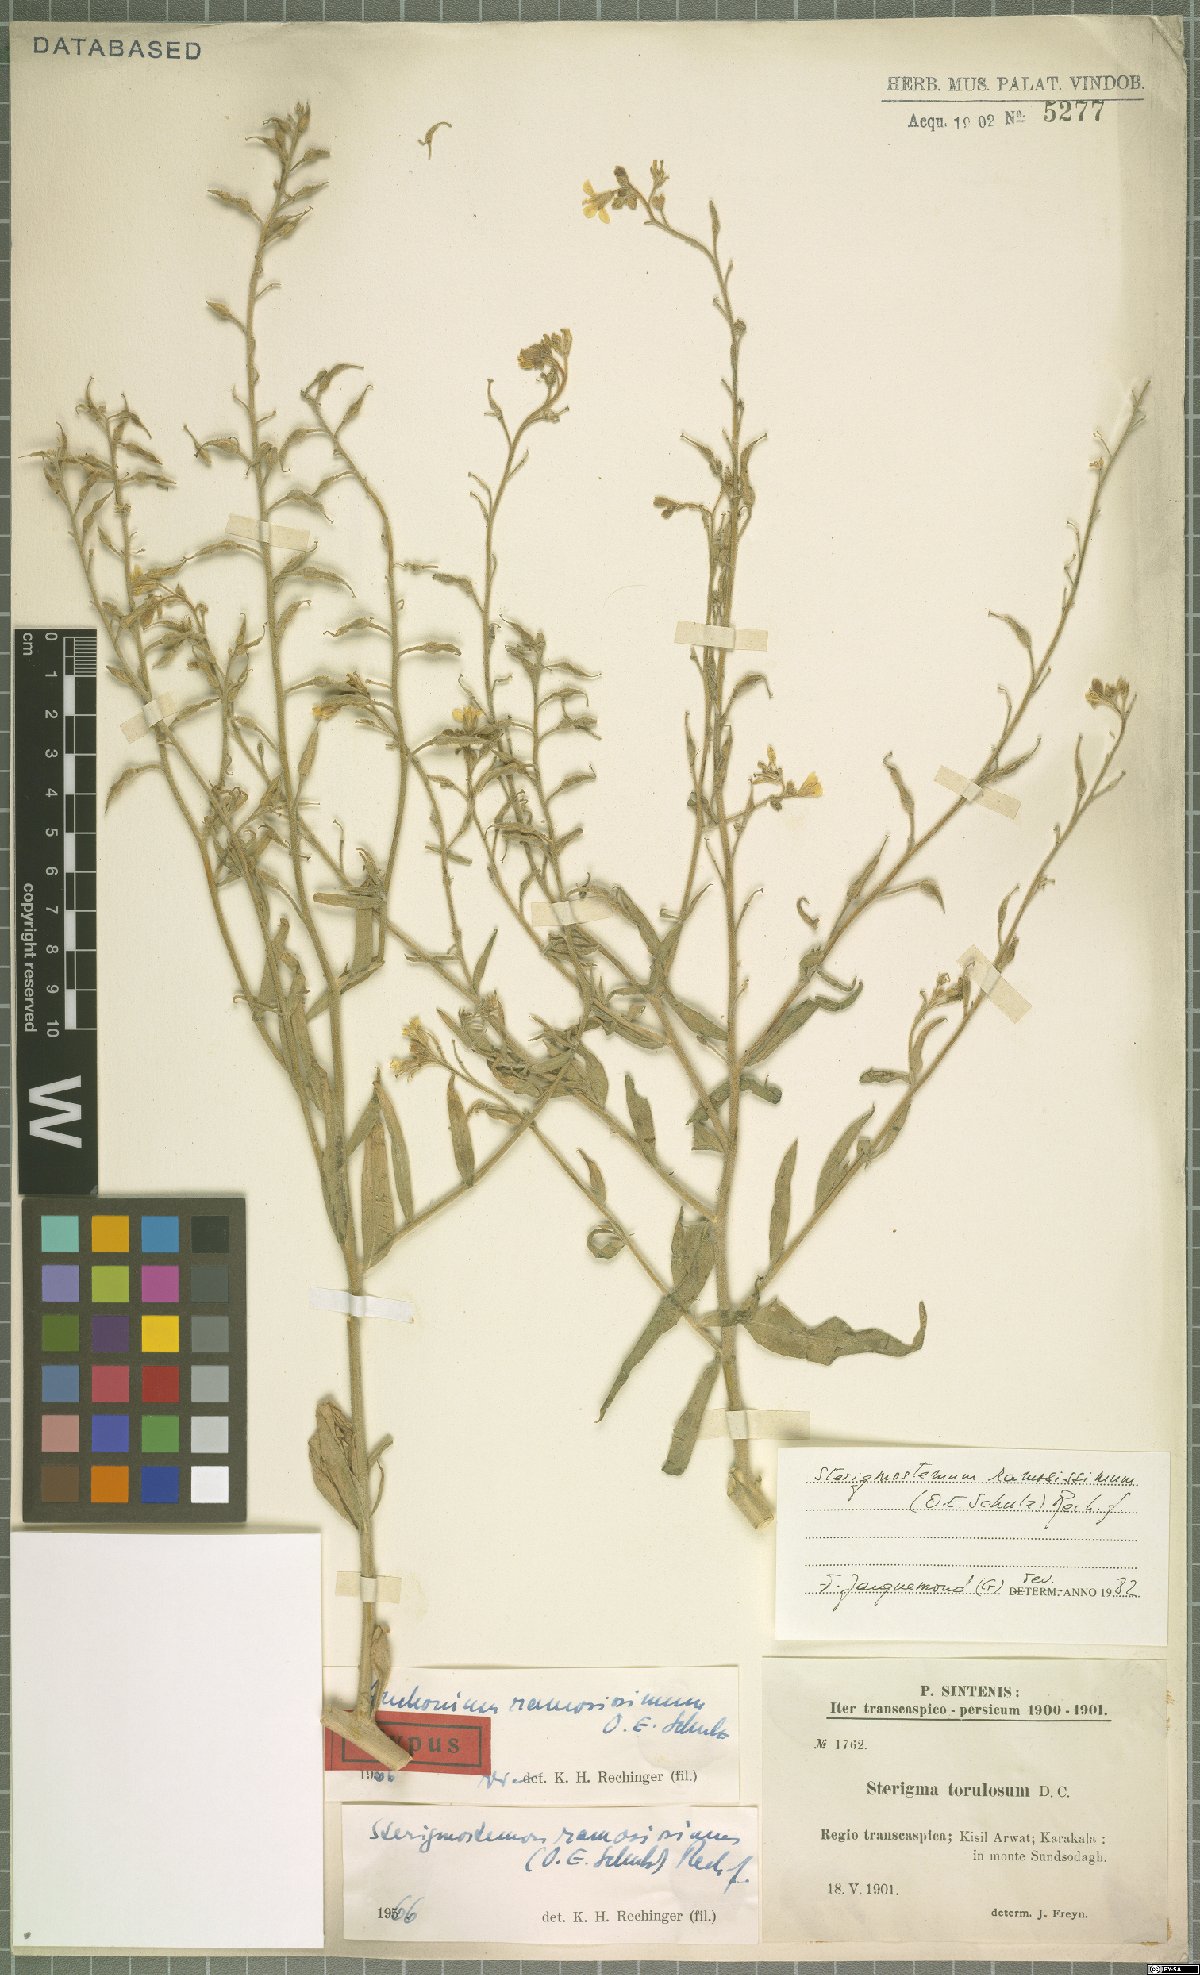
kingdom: Plantae
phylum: Tracheophyta
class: Magnoliopsida
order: Brassicales
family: Brassicaceae
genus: Sterigmostemum
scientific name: Sterigmostemum ramosissimum
